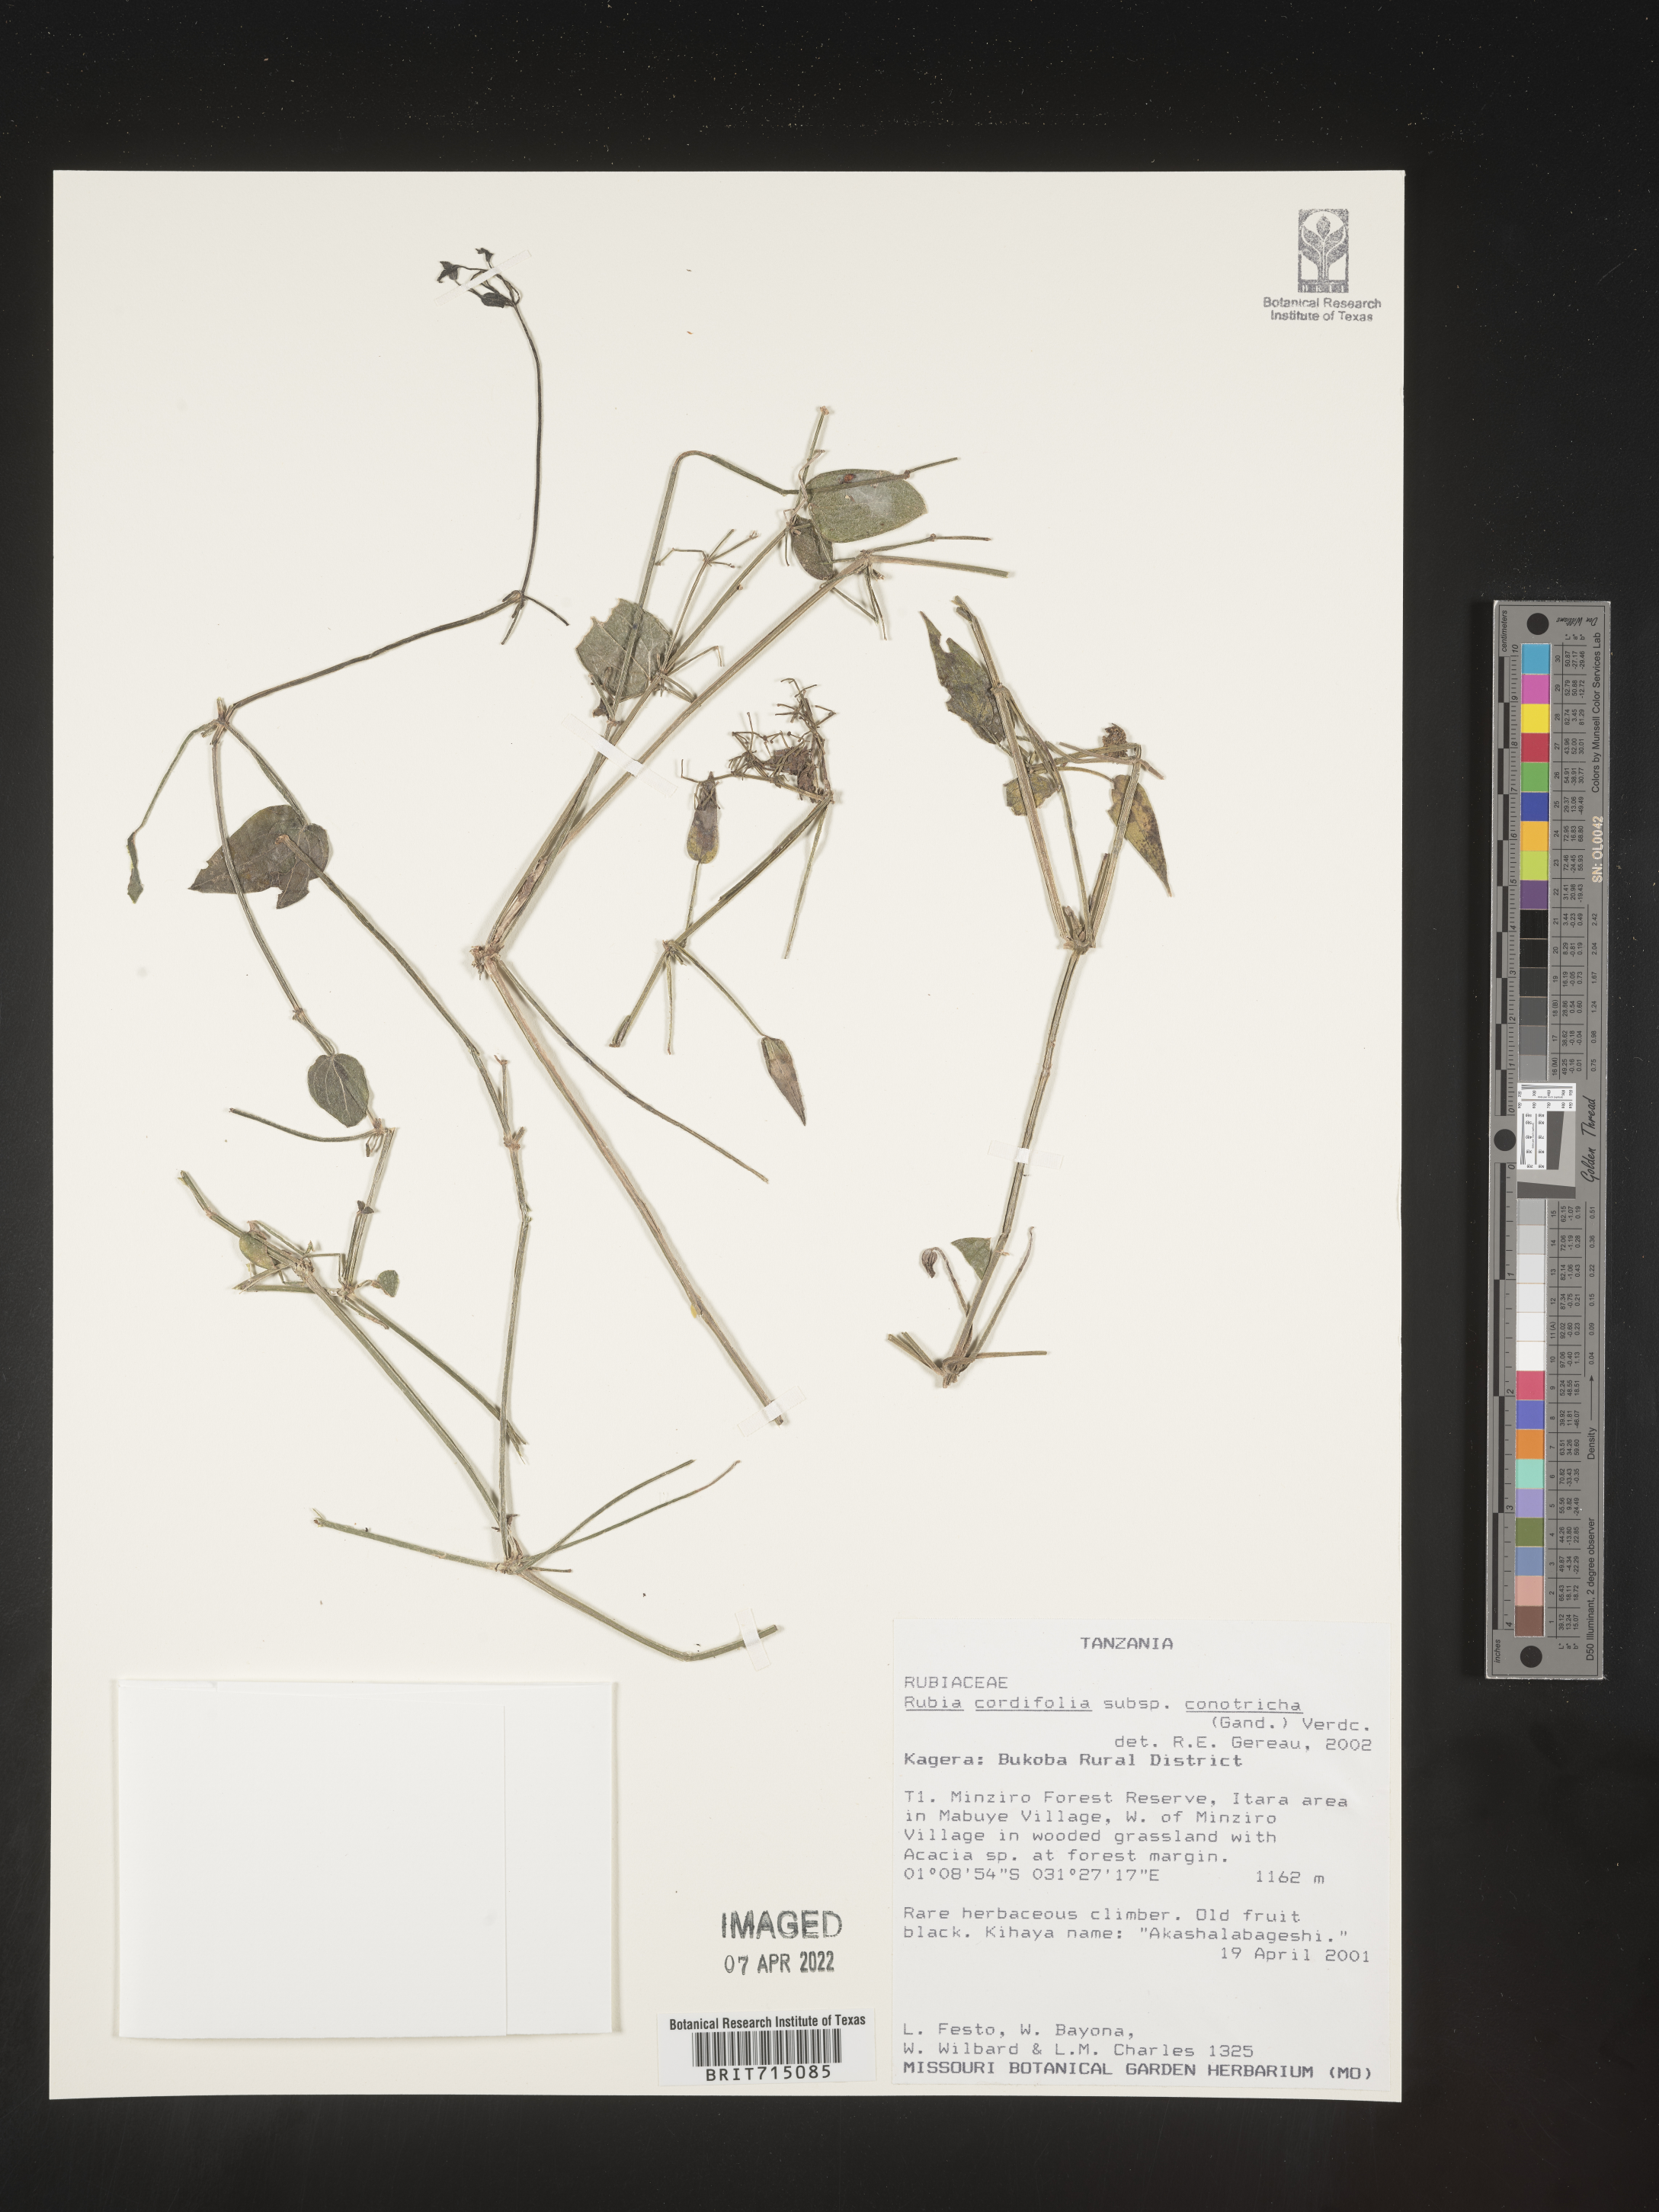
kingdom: Plantae
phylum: Tracheophyta
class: Magnoliopsida
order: Gentianales
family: Rubiaceae
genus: Rubia
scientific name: Rubia
